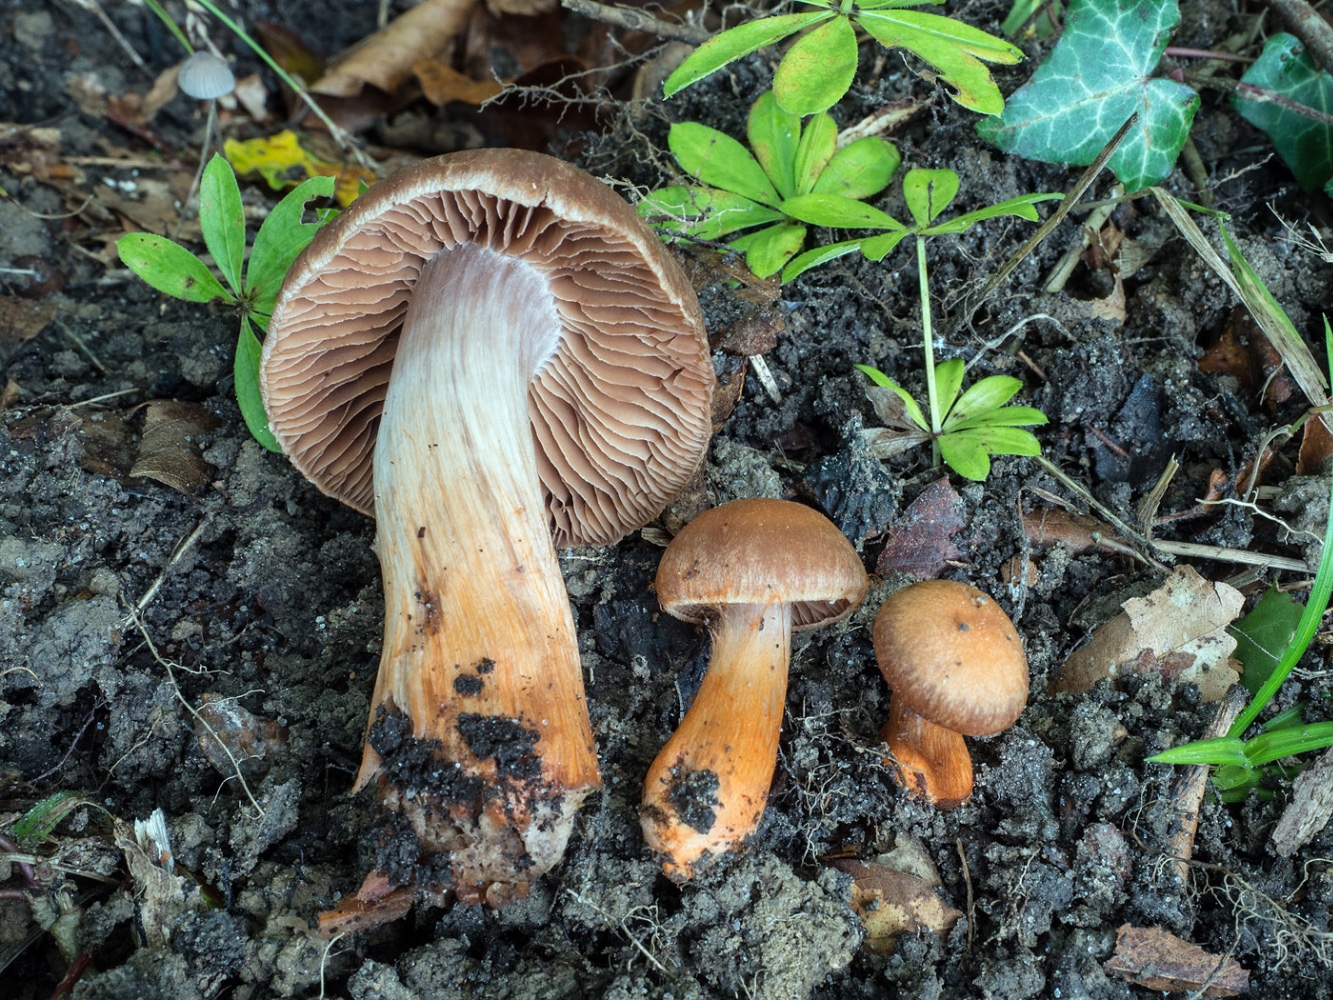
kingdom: Fungi
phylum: Basidiomycota
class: Agaricomycetes
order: Agaricales
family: Cortinariaceae
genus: Cortinarius
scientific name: Cortinarius bulliardii
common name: Bulliards slørhat
